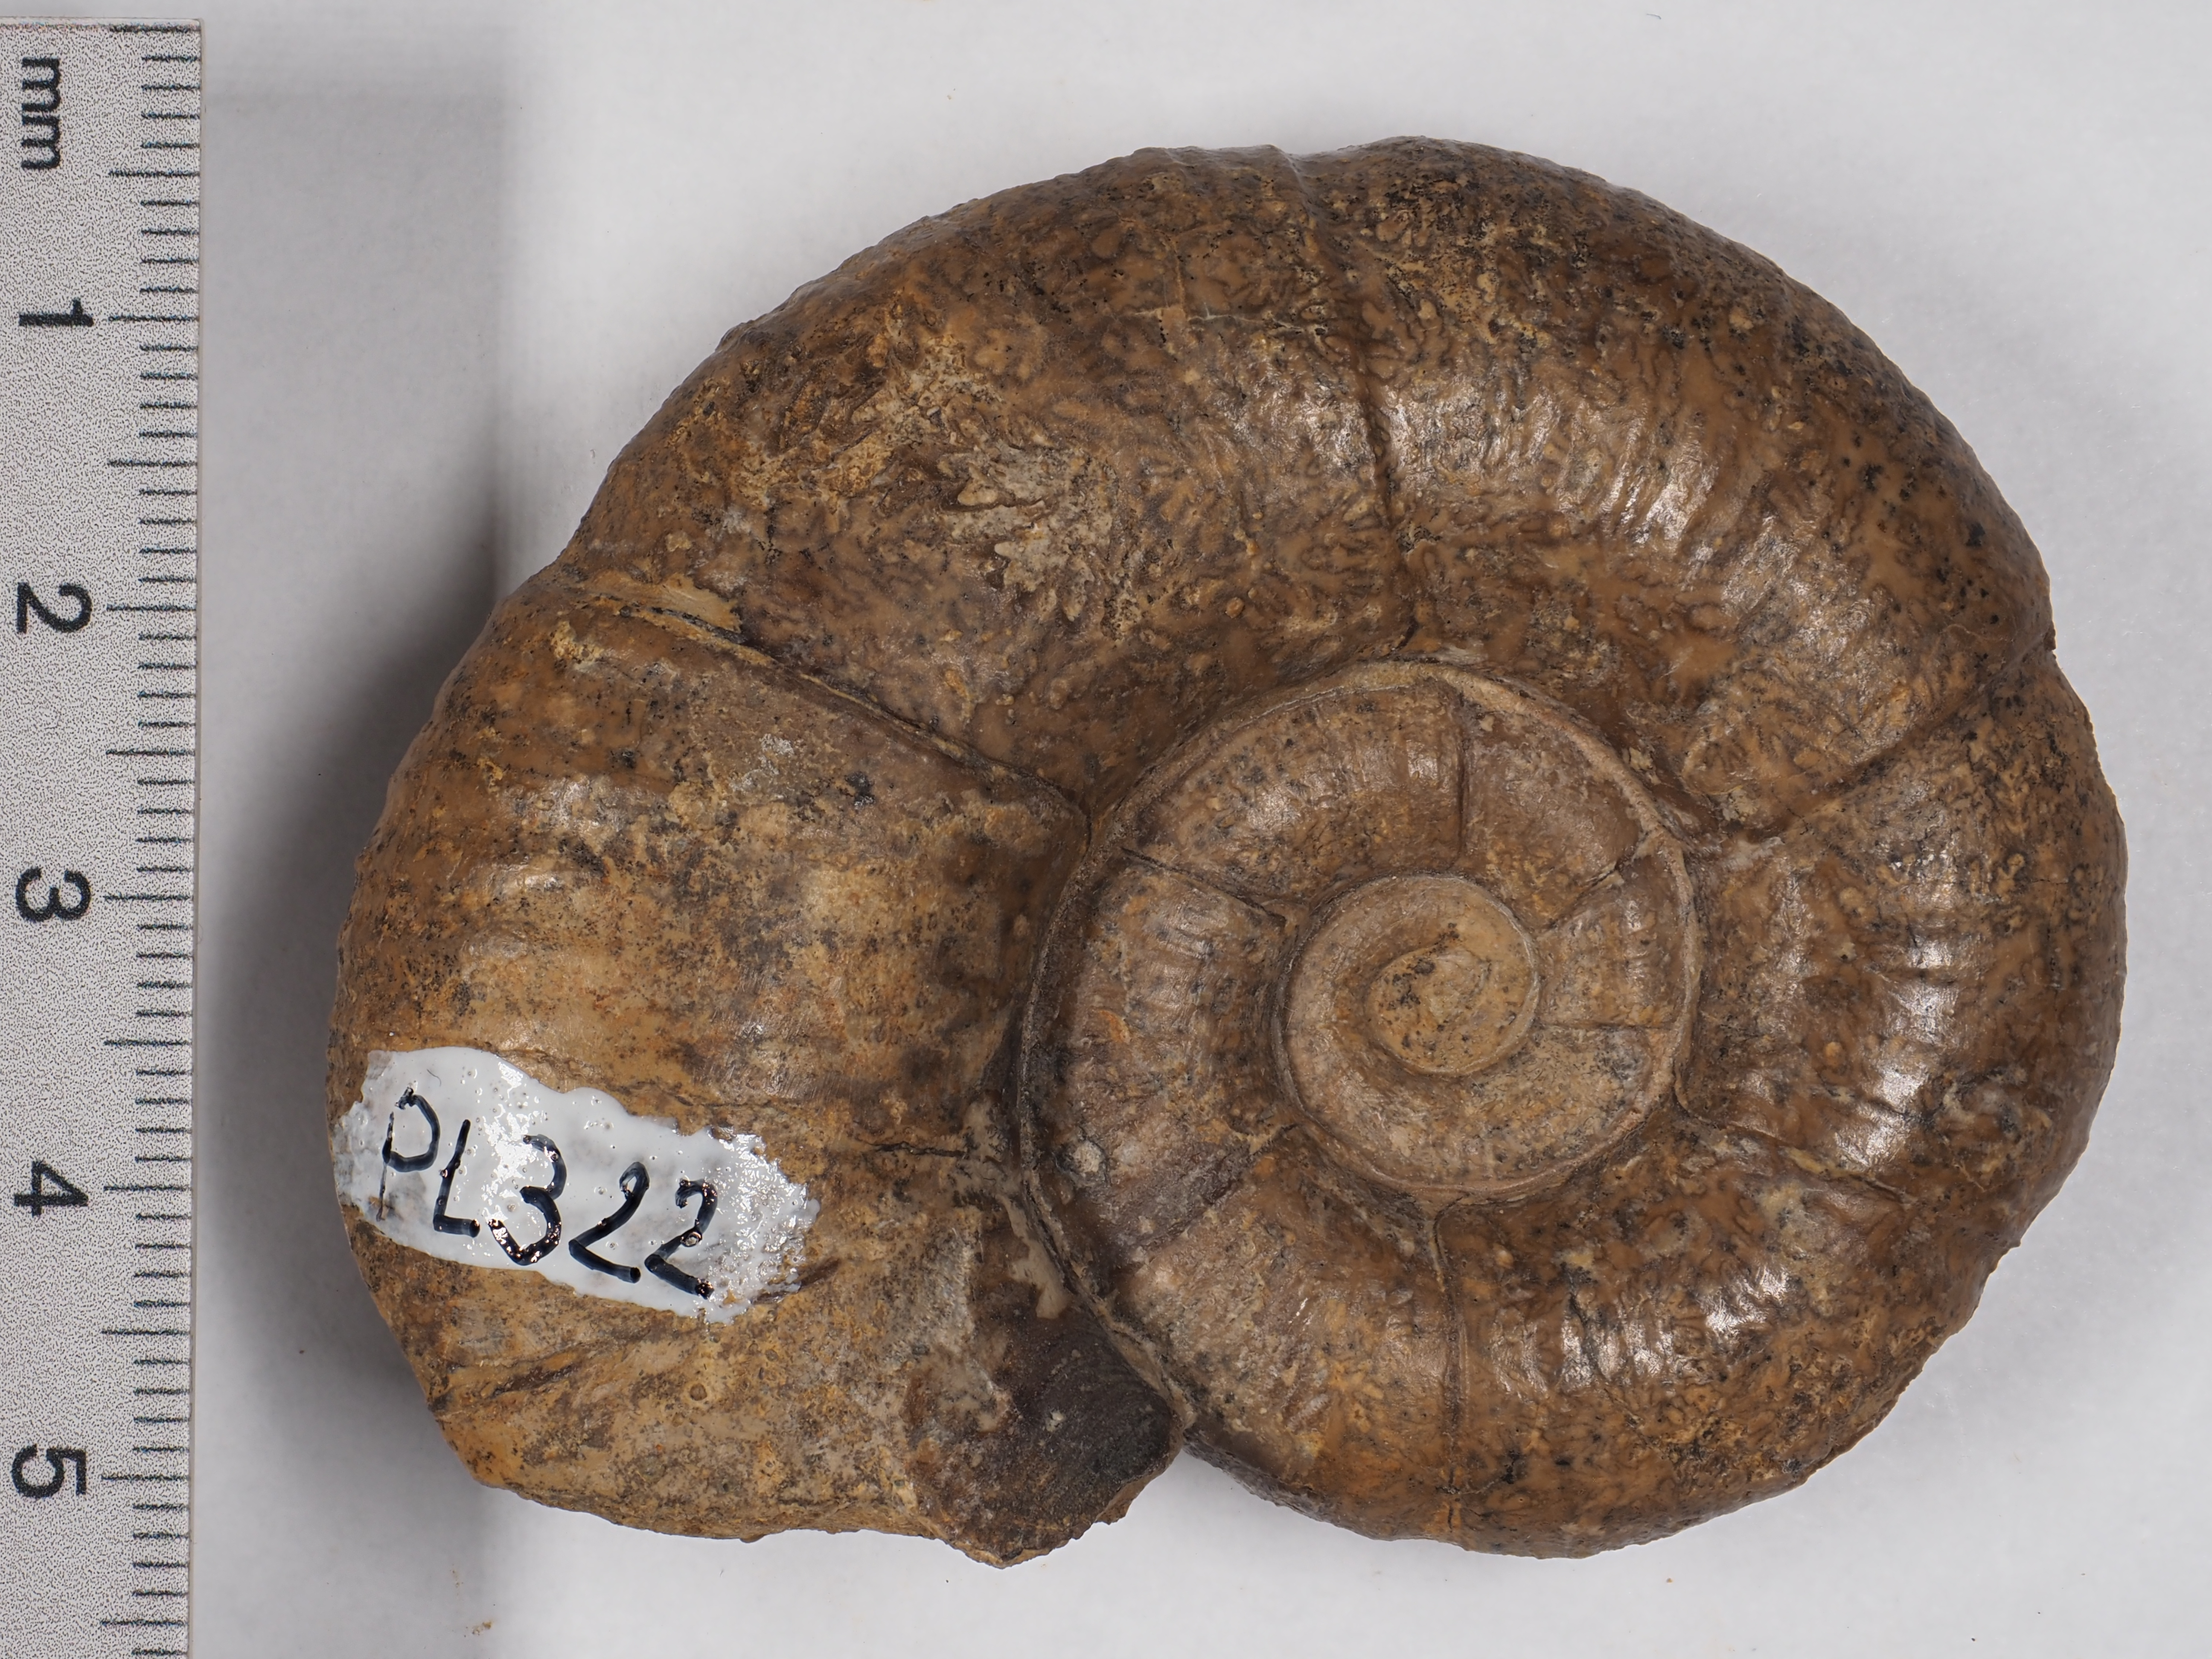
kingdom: Animalia
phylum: Mollusca
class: Cephalopoda
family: Lytoceratidae
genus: Lytoceras
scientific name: Lytoceras fimbriatum
